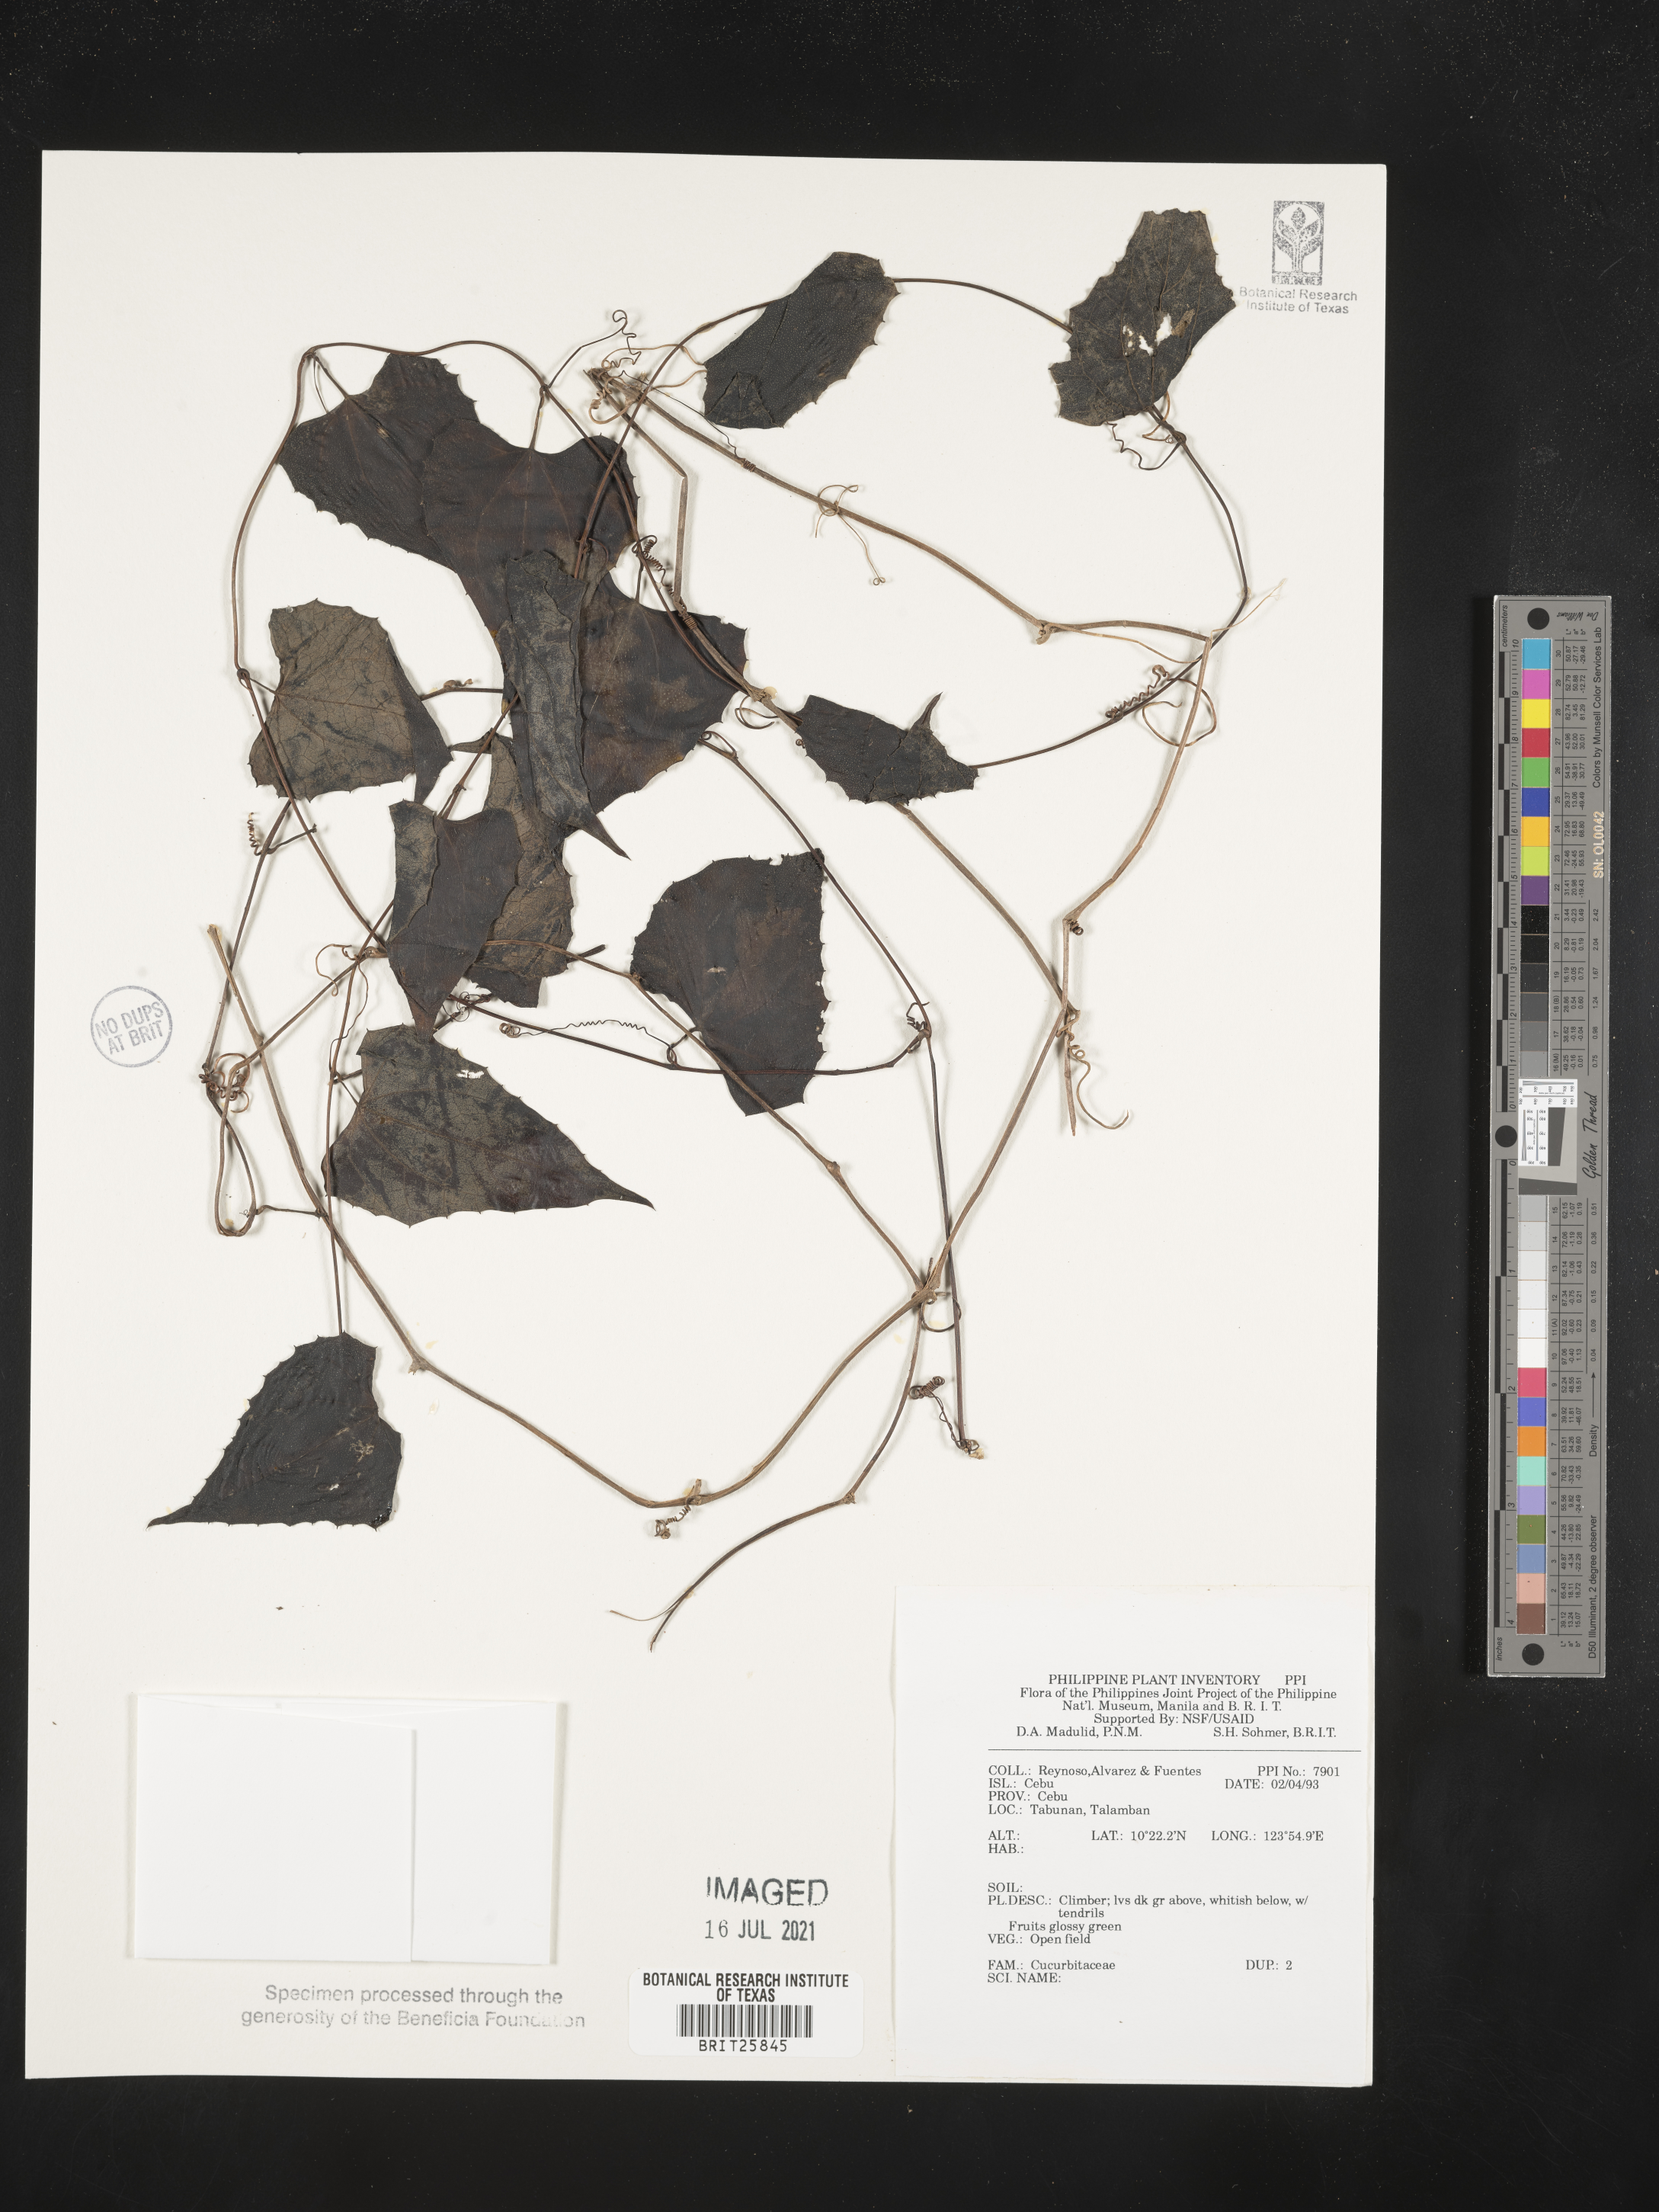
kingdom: Plantae
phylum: Tracheophyta
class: Magnoliopsida
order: Cucurbitales
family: Cucurbitaceae
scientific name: Cucurbitaceae
